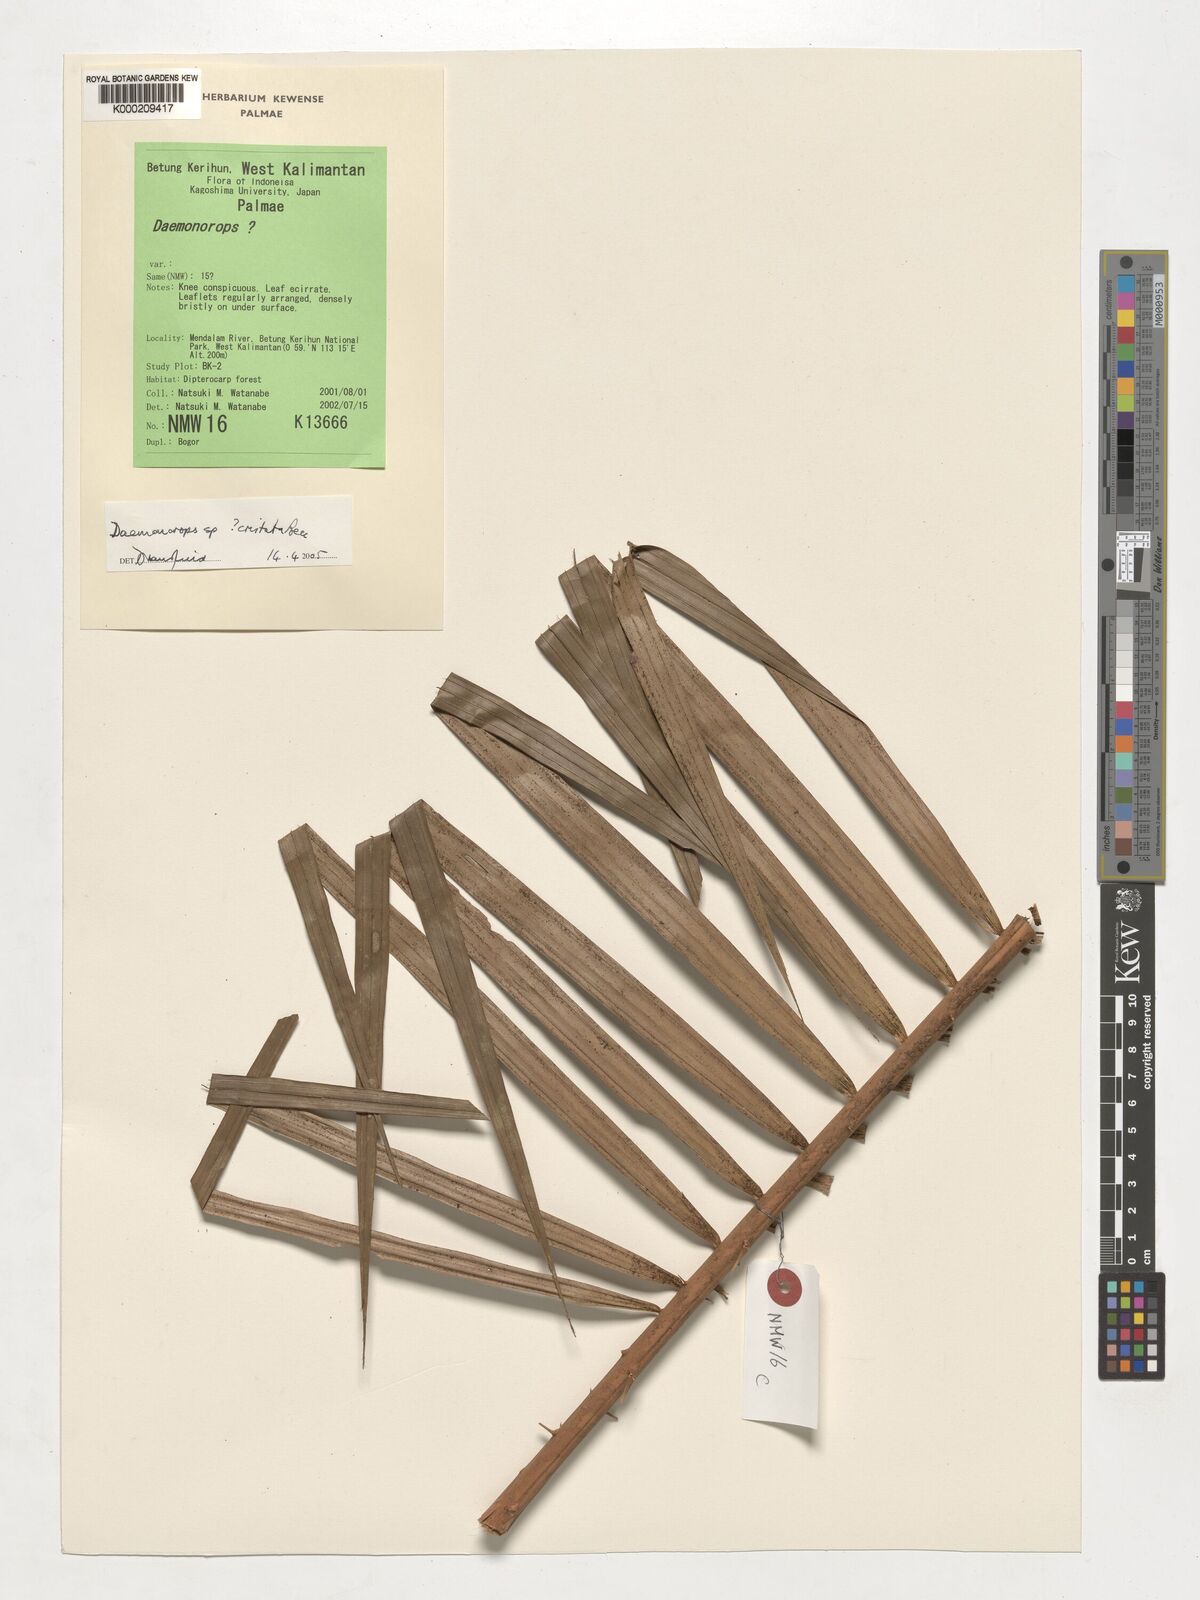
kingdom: Plantae
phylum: Tracheophyta
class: Liliopsida
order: Arecales
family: Arecaceae
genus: Calamus
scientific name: Calamus cristatus
